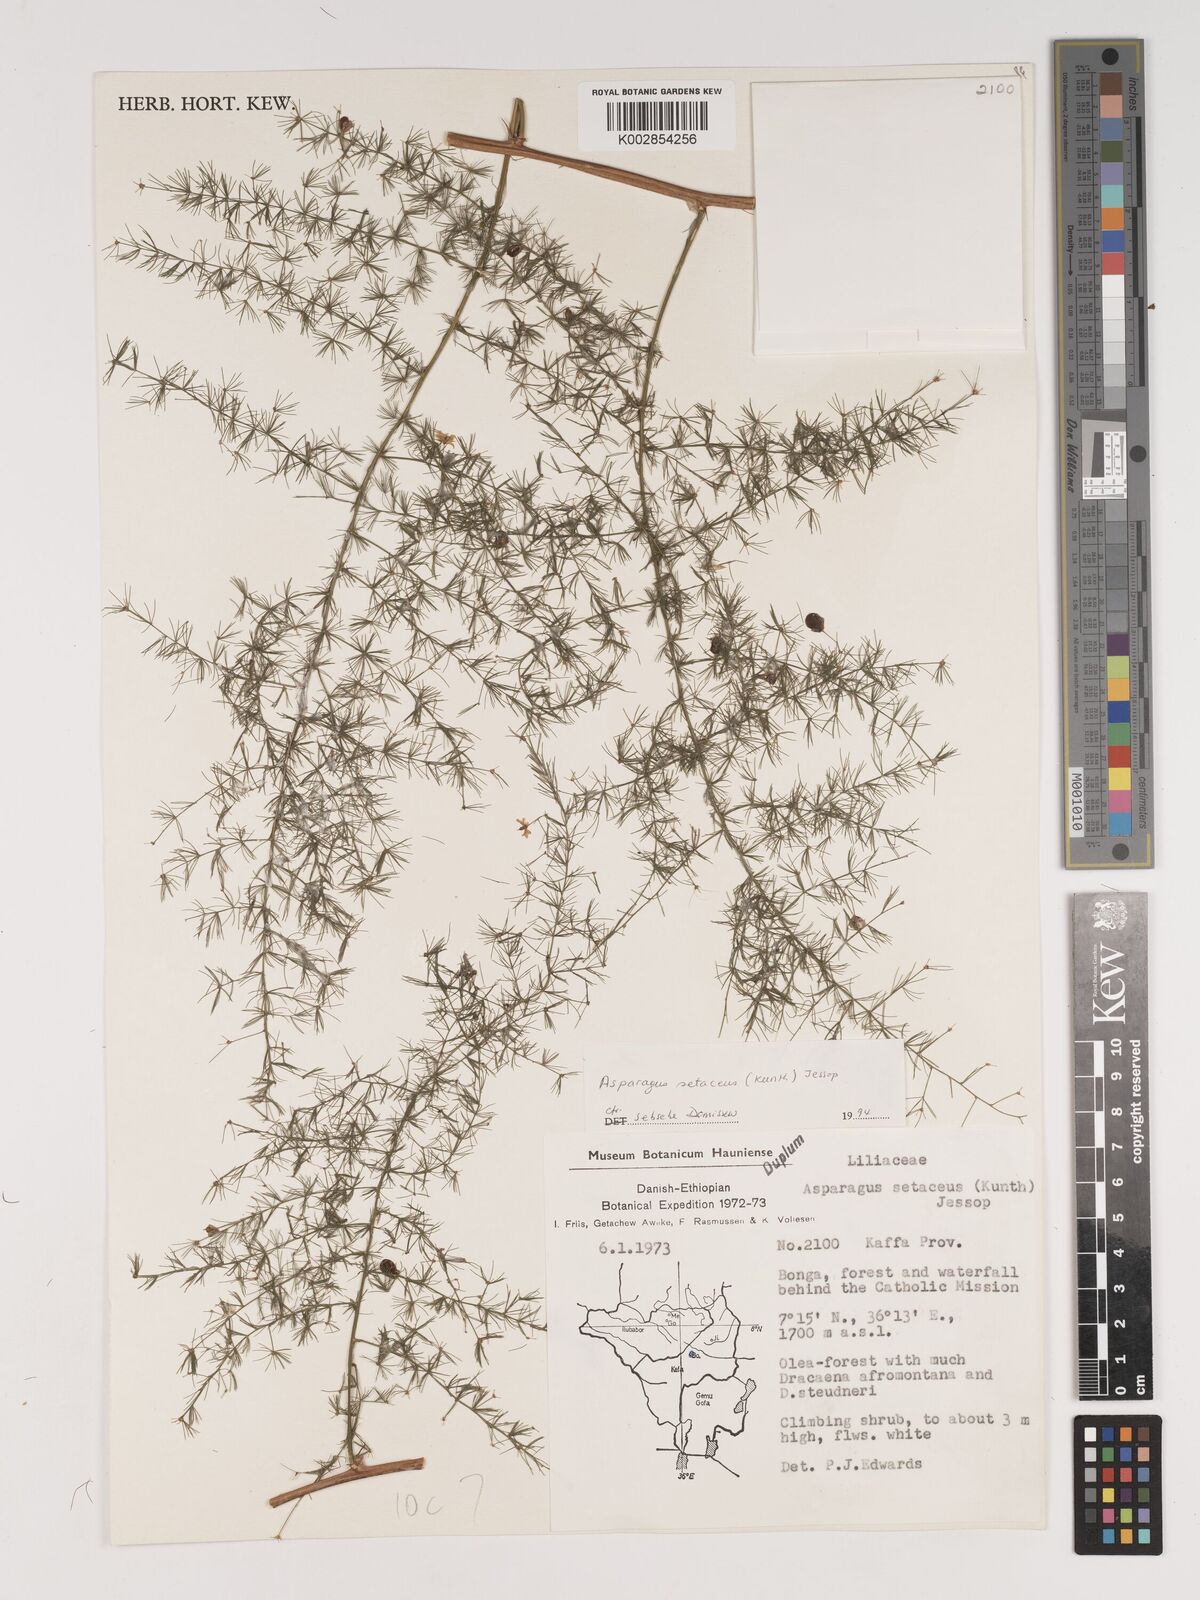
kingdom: Plantae
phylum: Tracheophyta
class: Liliopsida
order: Asparagales
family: Asparagaceae
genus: Asparagus
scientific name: Asparagus setaceus
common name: Common asparagus fern
